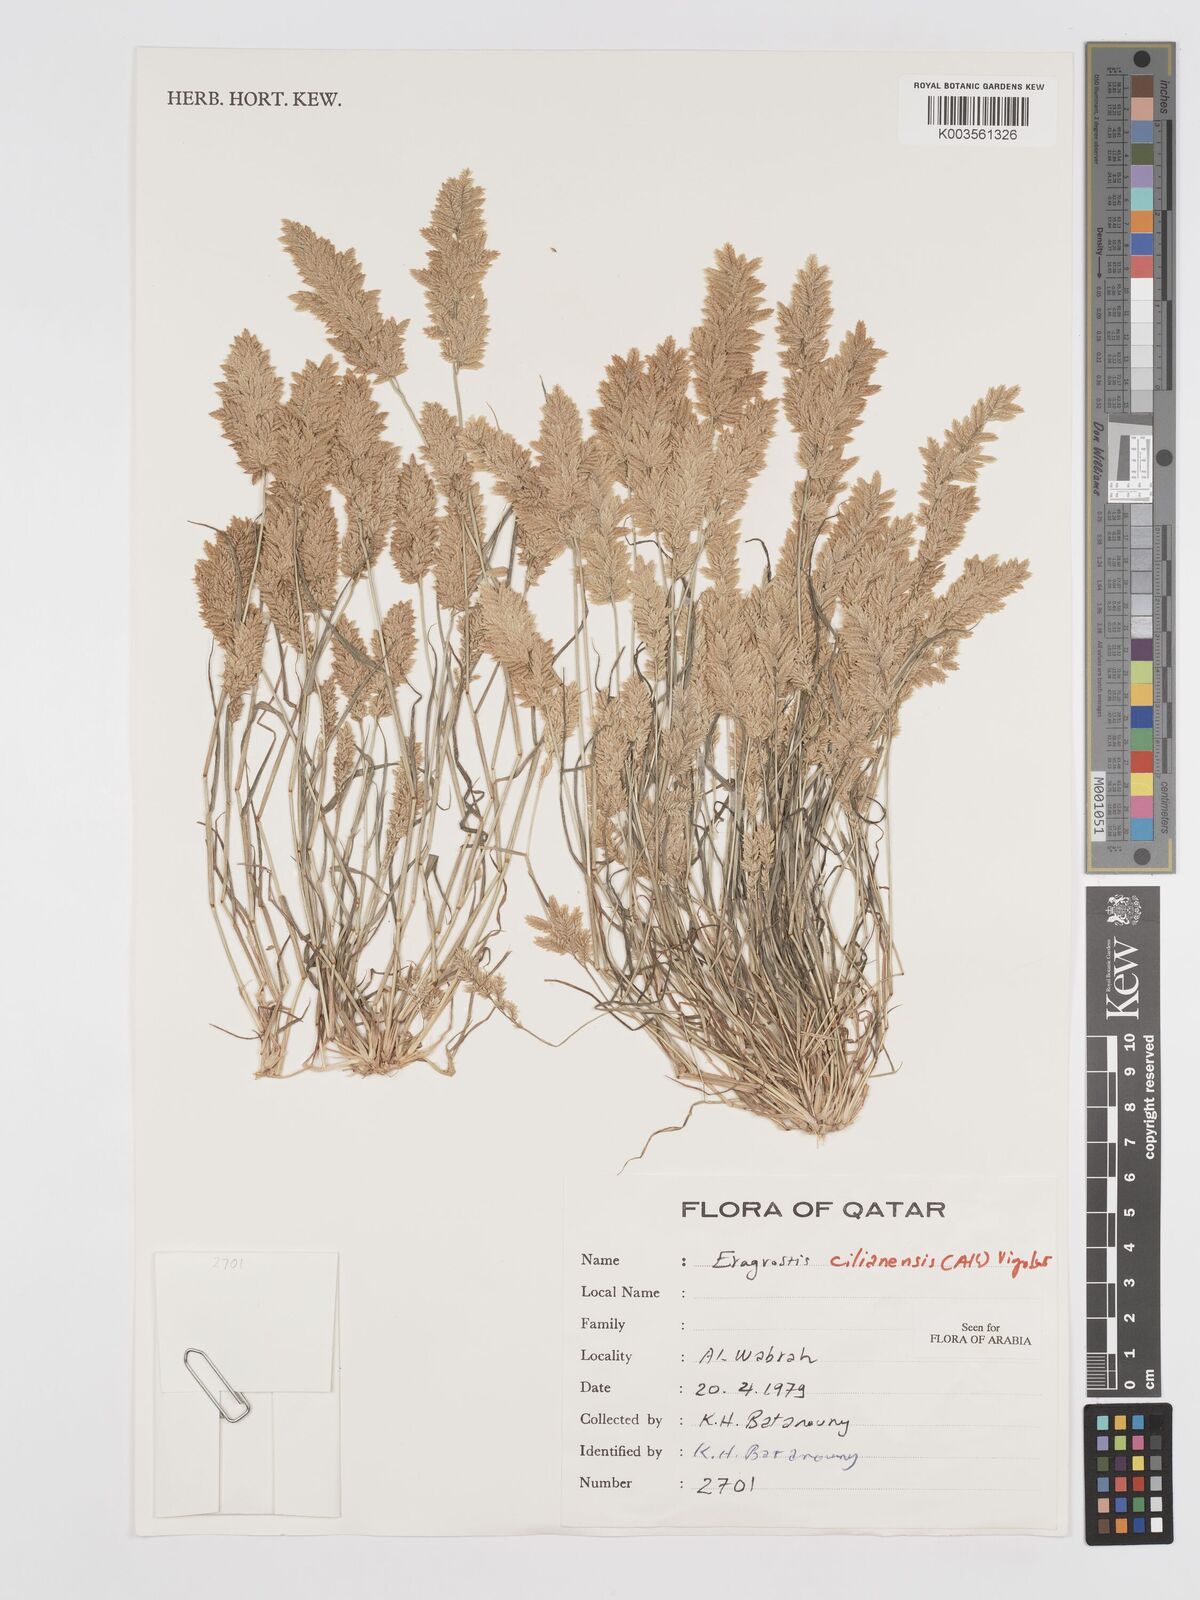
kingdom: Plantae
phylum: Tracheophyta
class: Liliopsida
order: Poales
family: Poaceae
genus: Eragrostis
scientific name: Eragrostis cilianensis
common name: Stinkgrass
